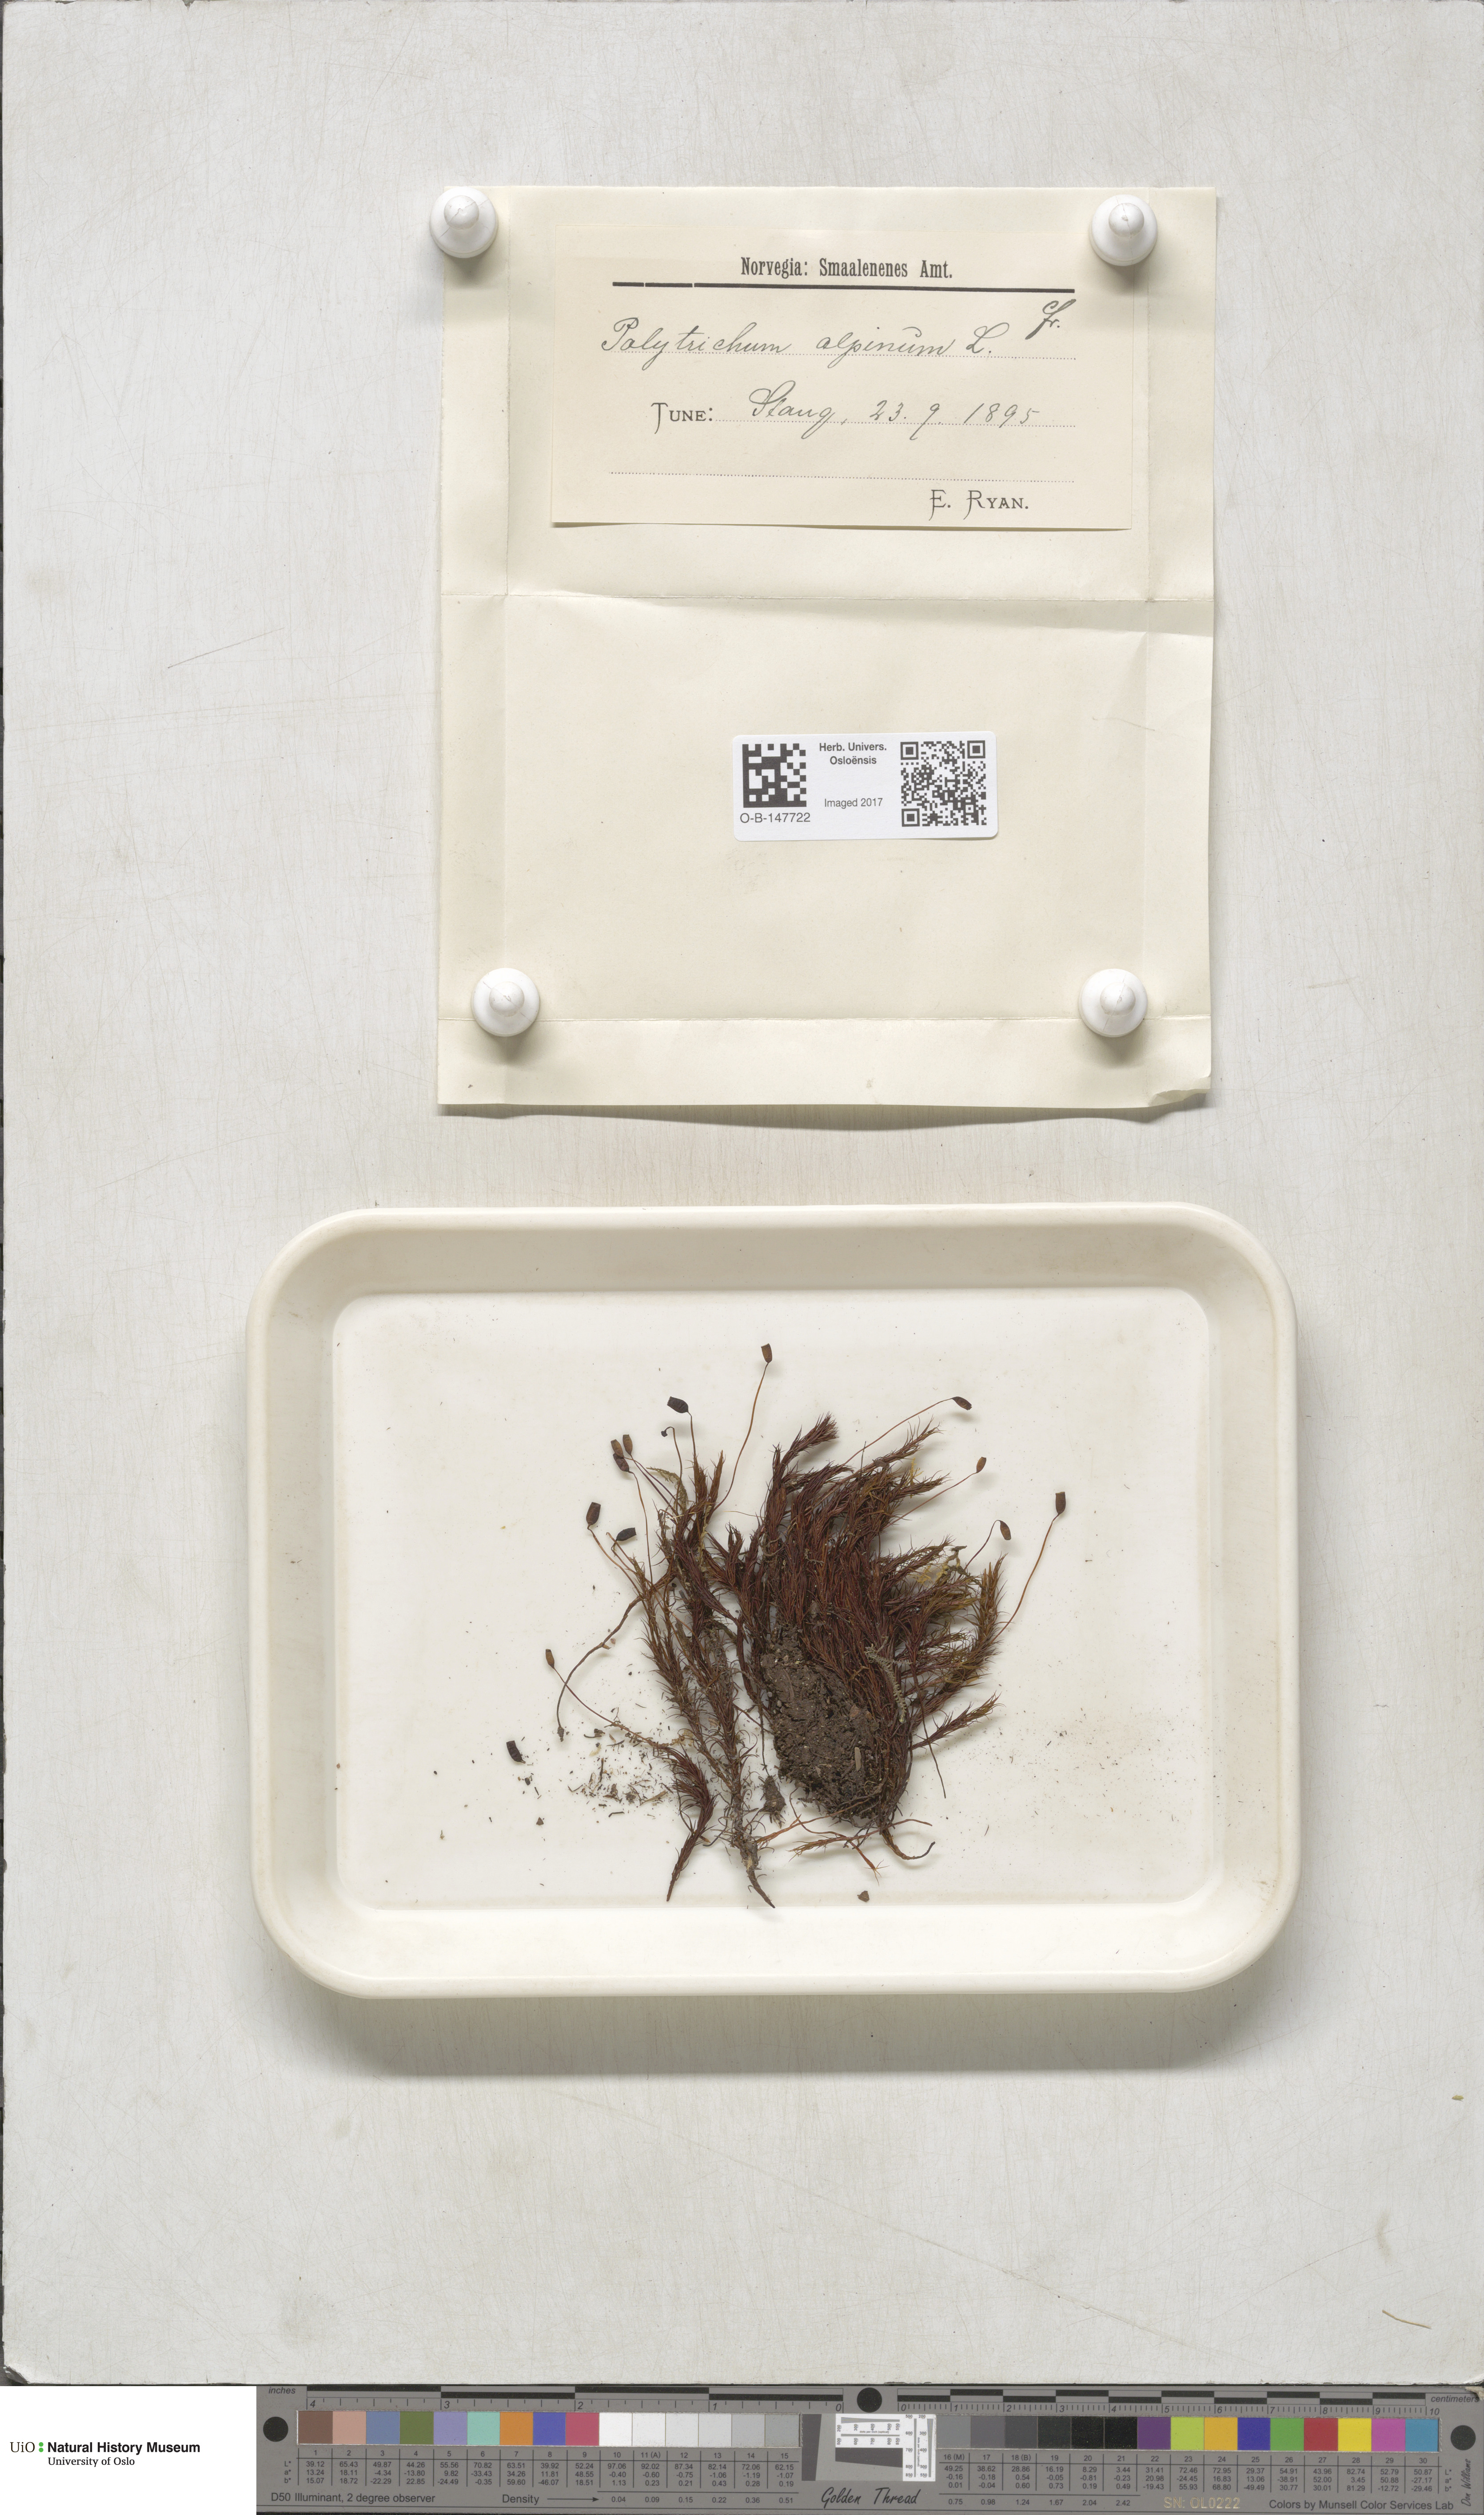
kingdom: Plantae
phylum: Bryophyta
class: Polytrichopsida
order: Polytrichales
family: Polytrichaceae
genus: Polytrichastrum
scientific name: Polytrichastrum alpinum
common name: Alpine haircap
